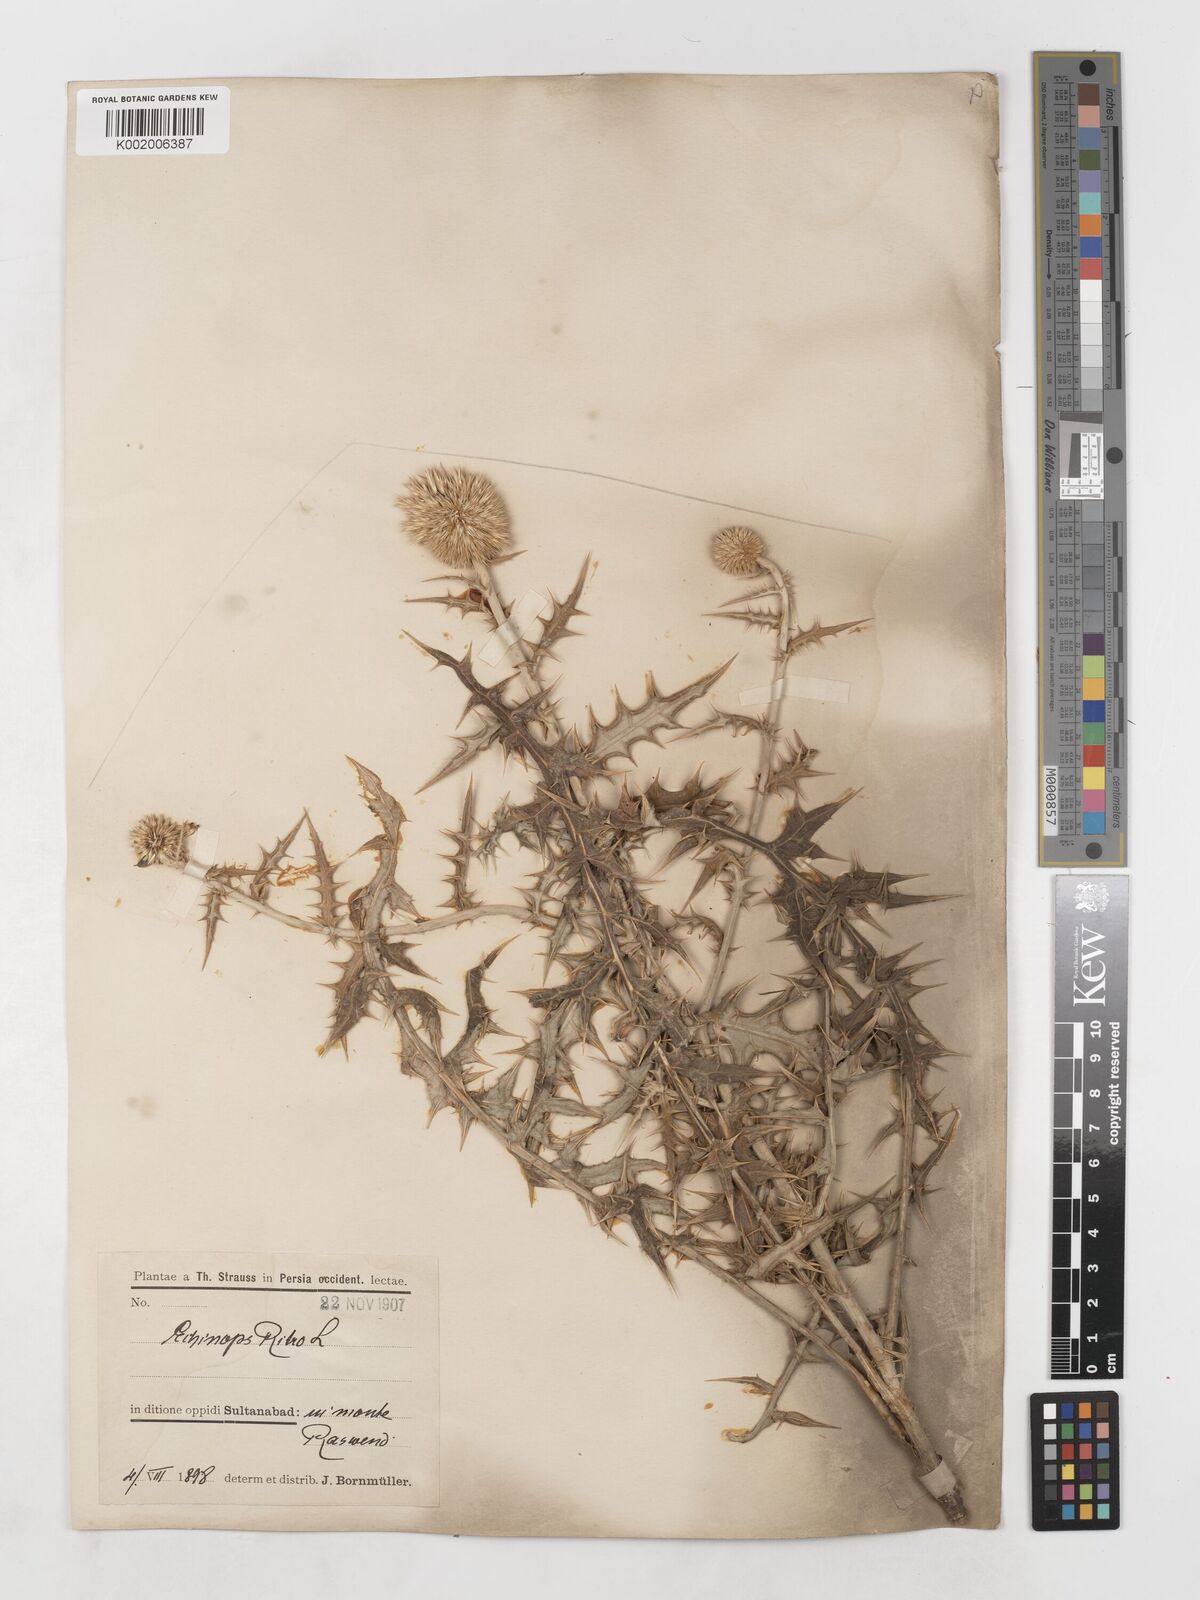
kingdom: Plantae
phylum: Tracheophyta
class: Magnoliopsida
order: Asterales
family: Asteraceae
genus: Echinops
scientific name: Echinops ritrodes
